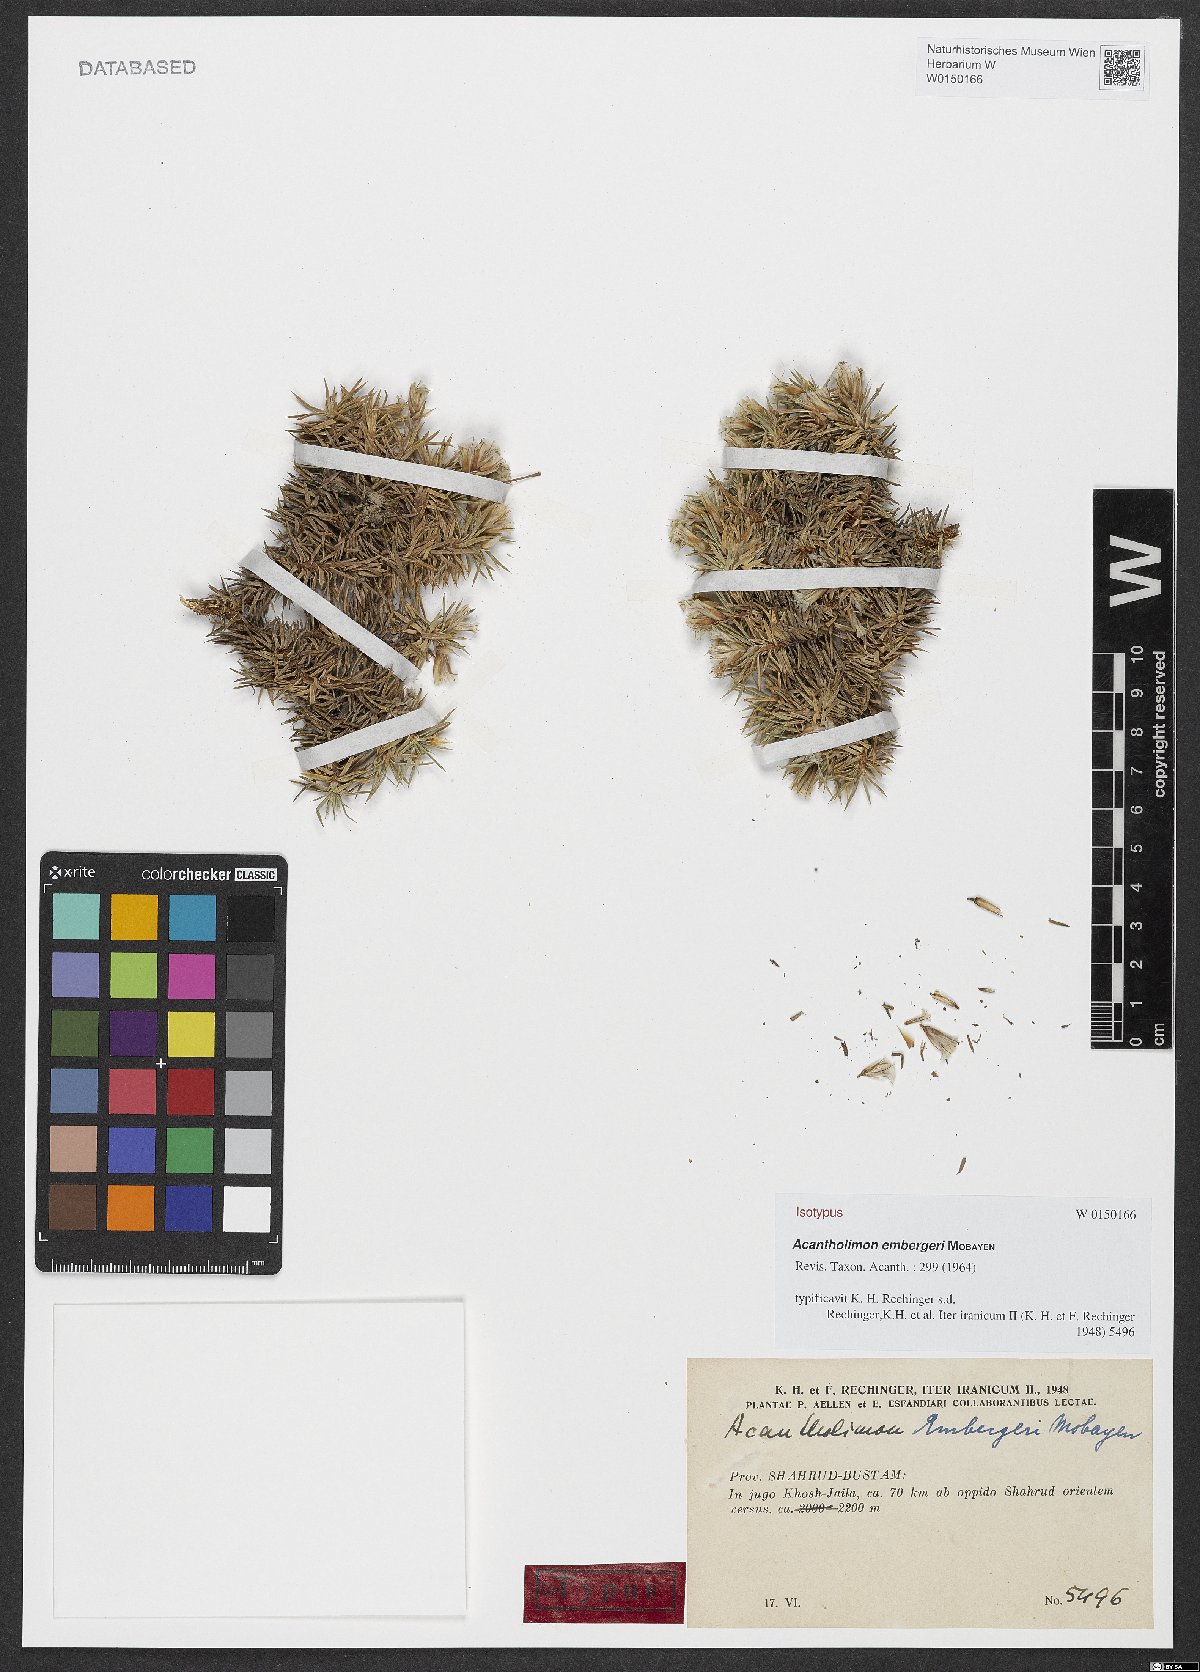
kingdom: Plantae
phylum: Tracheophyta
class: Magnoliopsida
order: Caryophyllales
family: Plumbaginaceae
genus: Acantholimon
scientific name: Acantholimon embergeri
